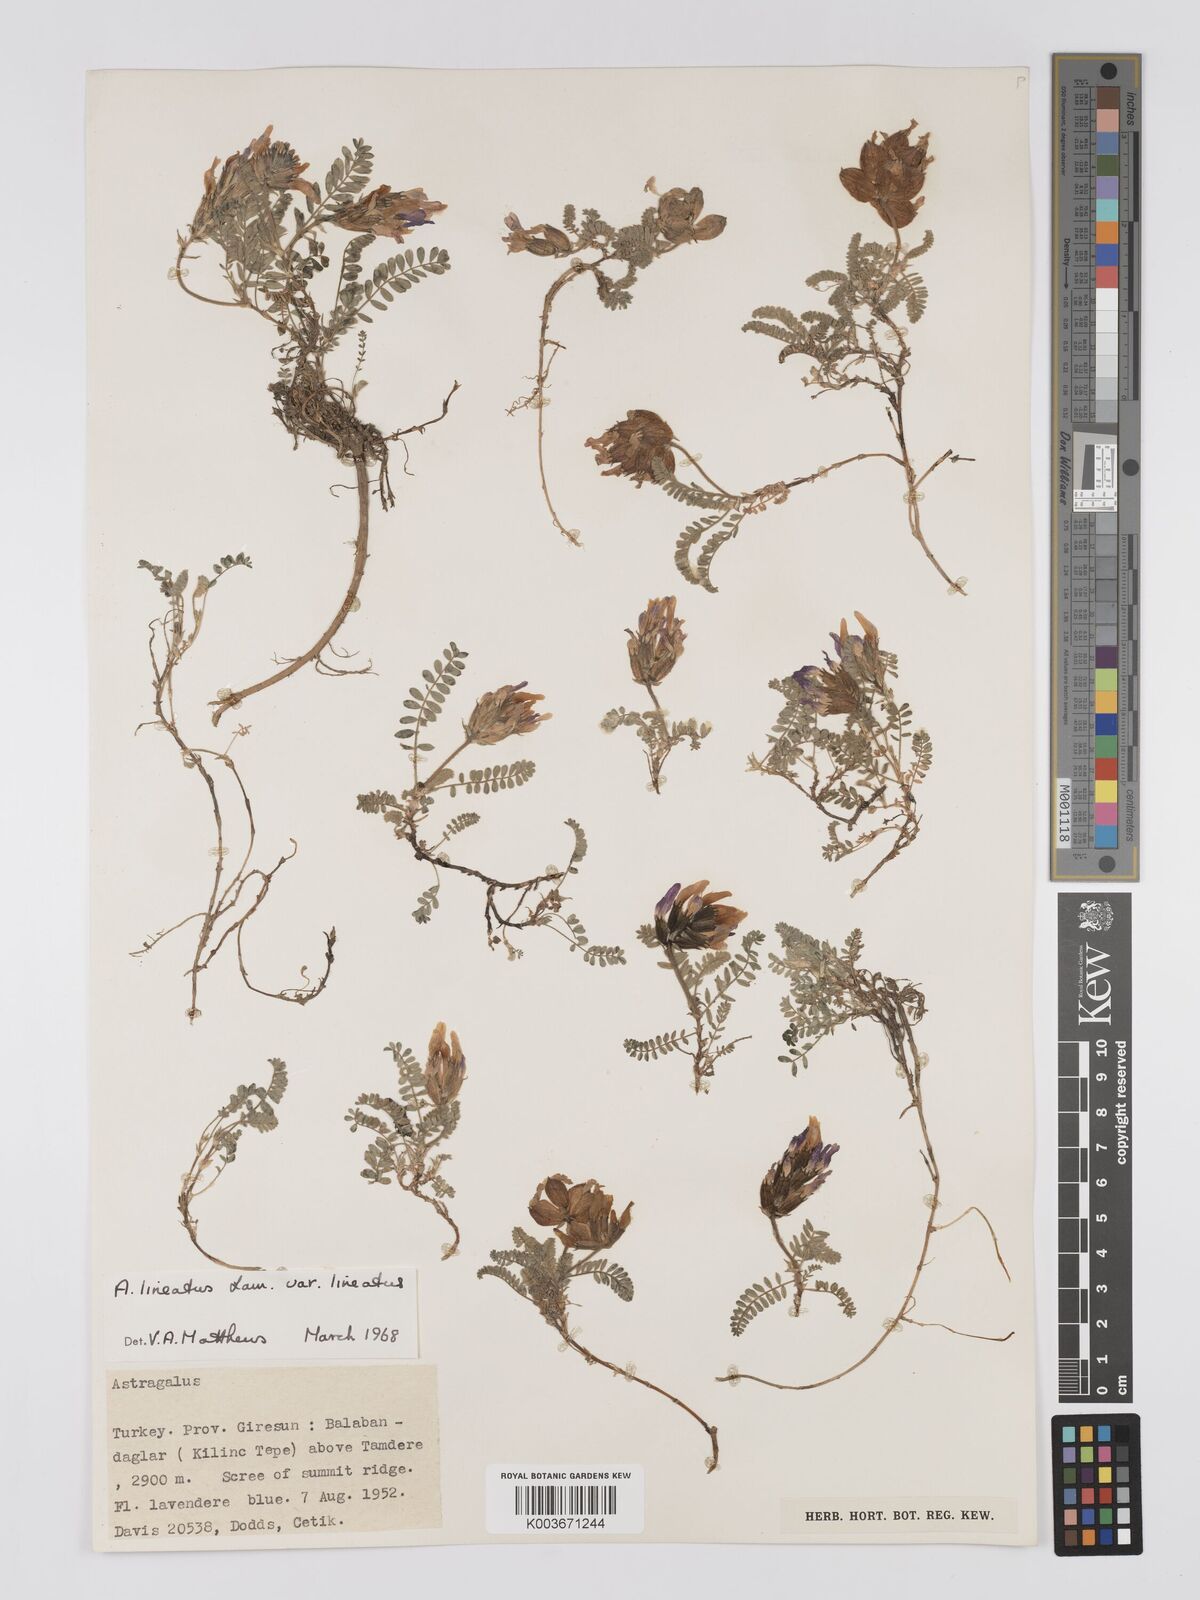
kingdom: Plantae
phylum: Tracheophyta
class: Magnoliopsida
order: Fabales
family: Fabaceae
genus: Astragalus
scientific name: Astragalus lineatus
